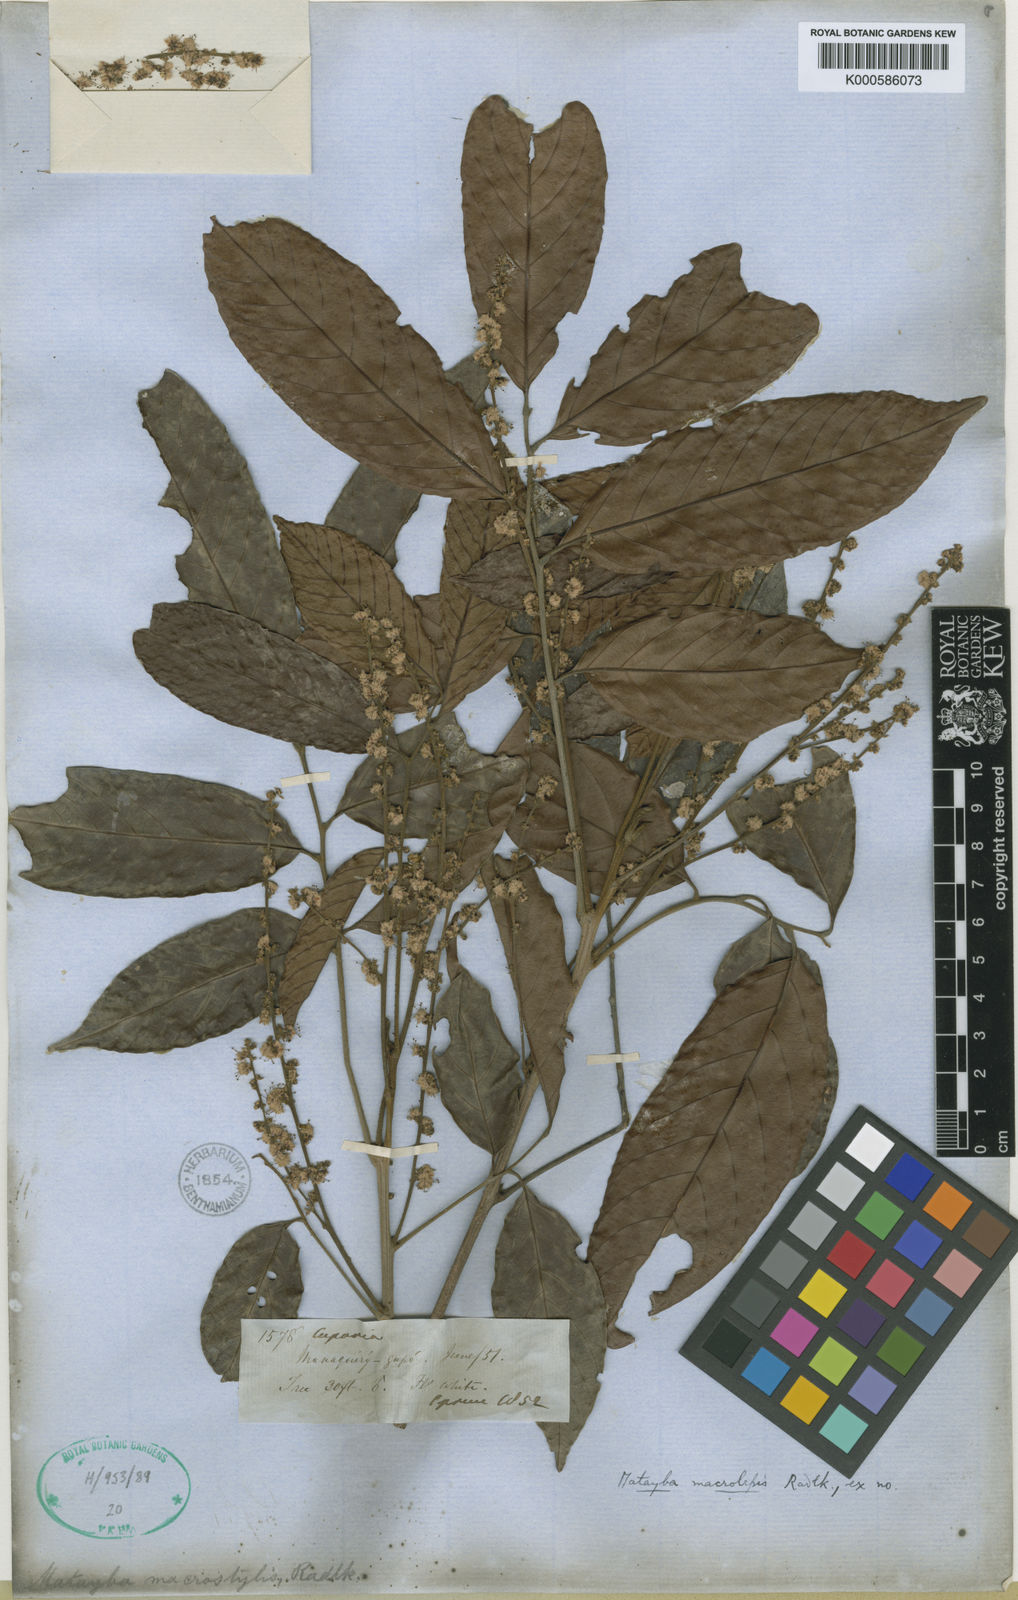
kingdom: Plantae
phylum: Tracheophyta
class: Magnoliopsida
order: Sapindales
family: Sapindaceae
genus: Cupania
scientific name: Cupania macrostylis
